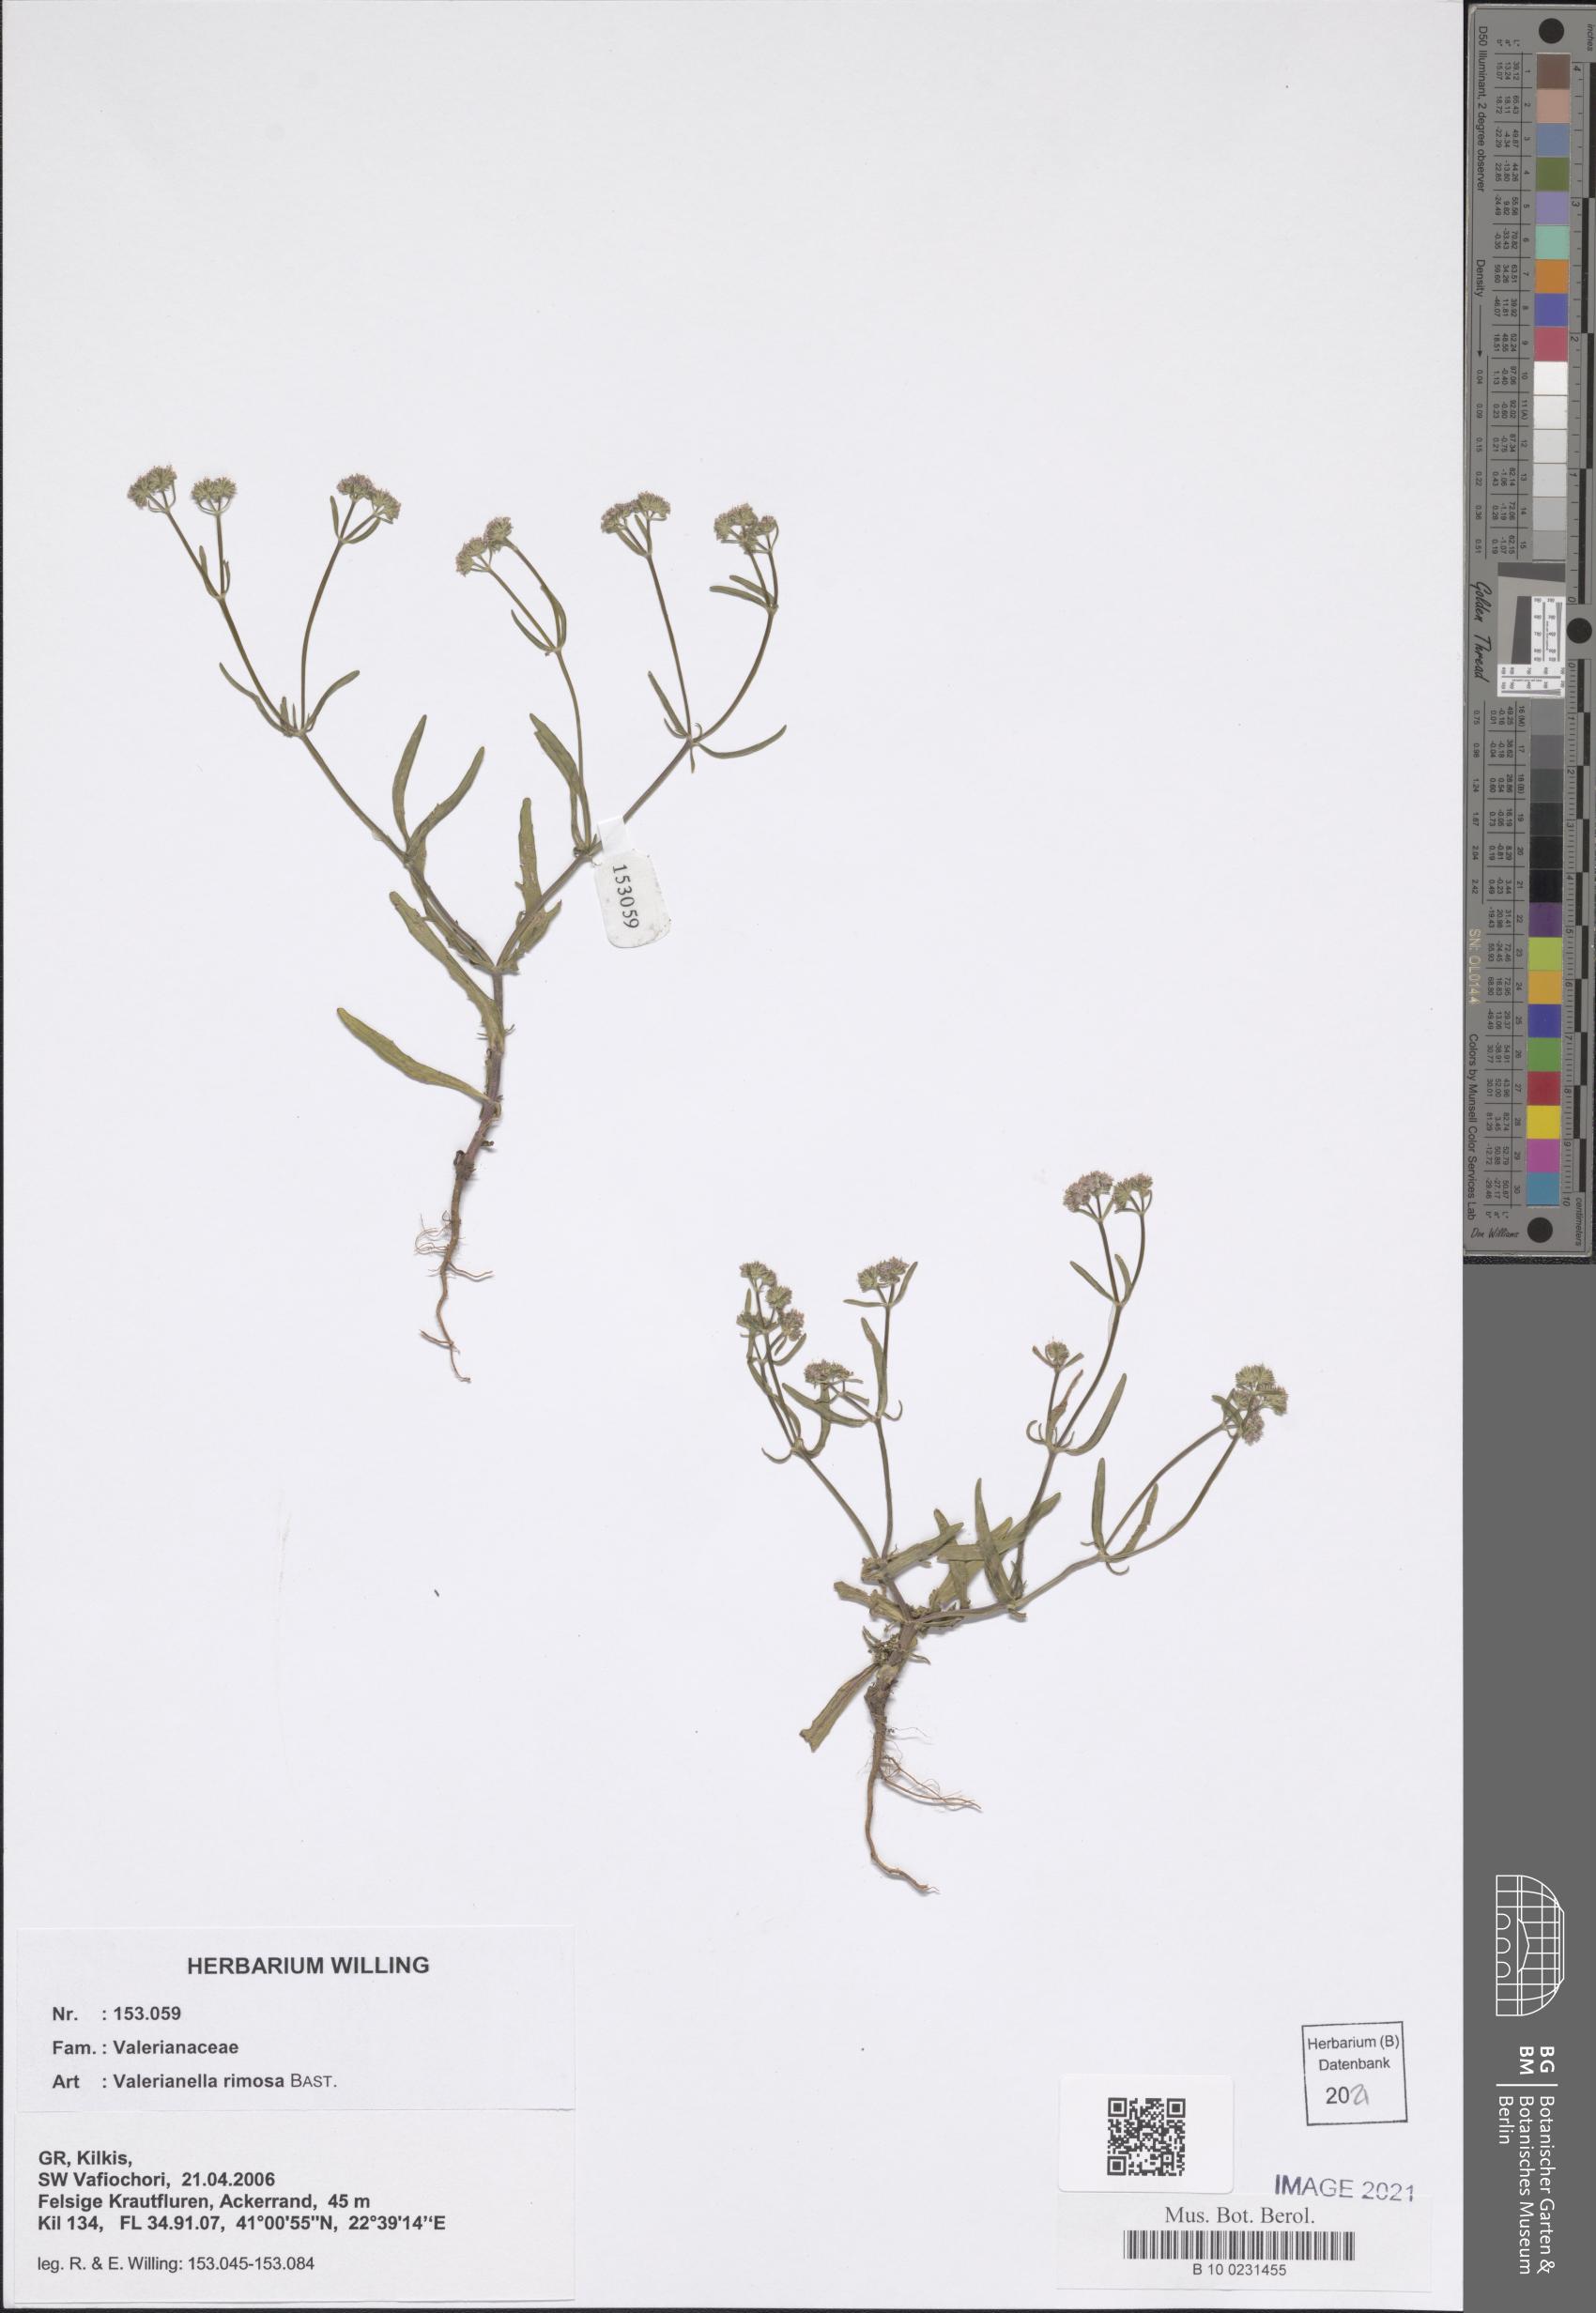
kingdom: Plantae
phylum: Tracheophyta
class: Magnoliopsida
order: Dipsacales
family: Caprifoliaceae
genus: Valerianella
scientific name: Valerianella rimosa
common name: Broad-fruited cornsalad
